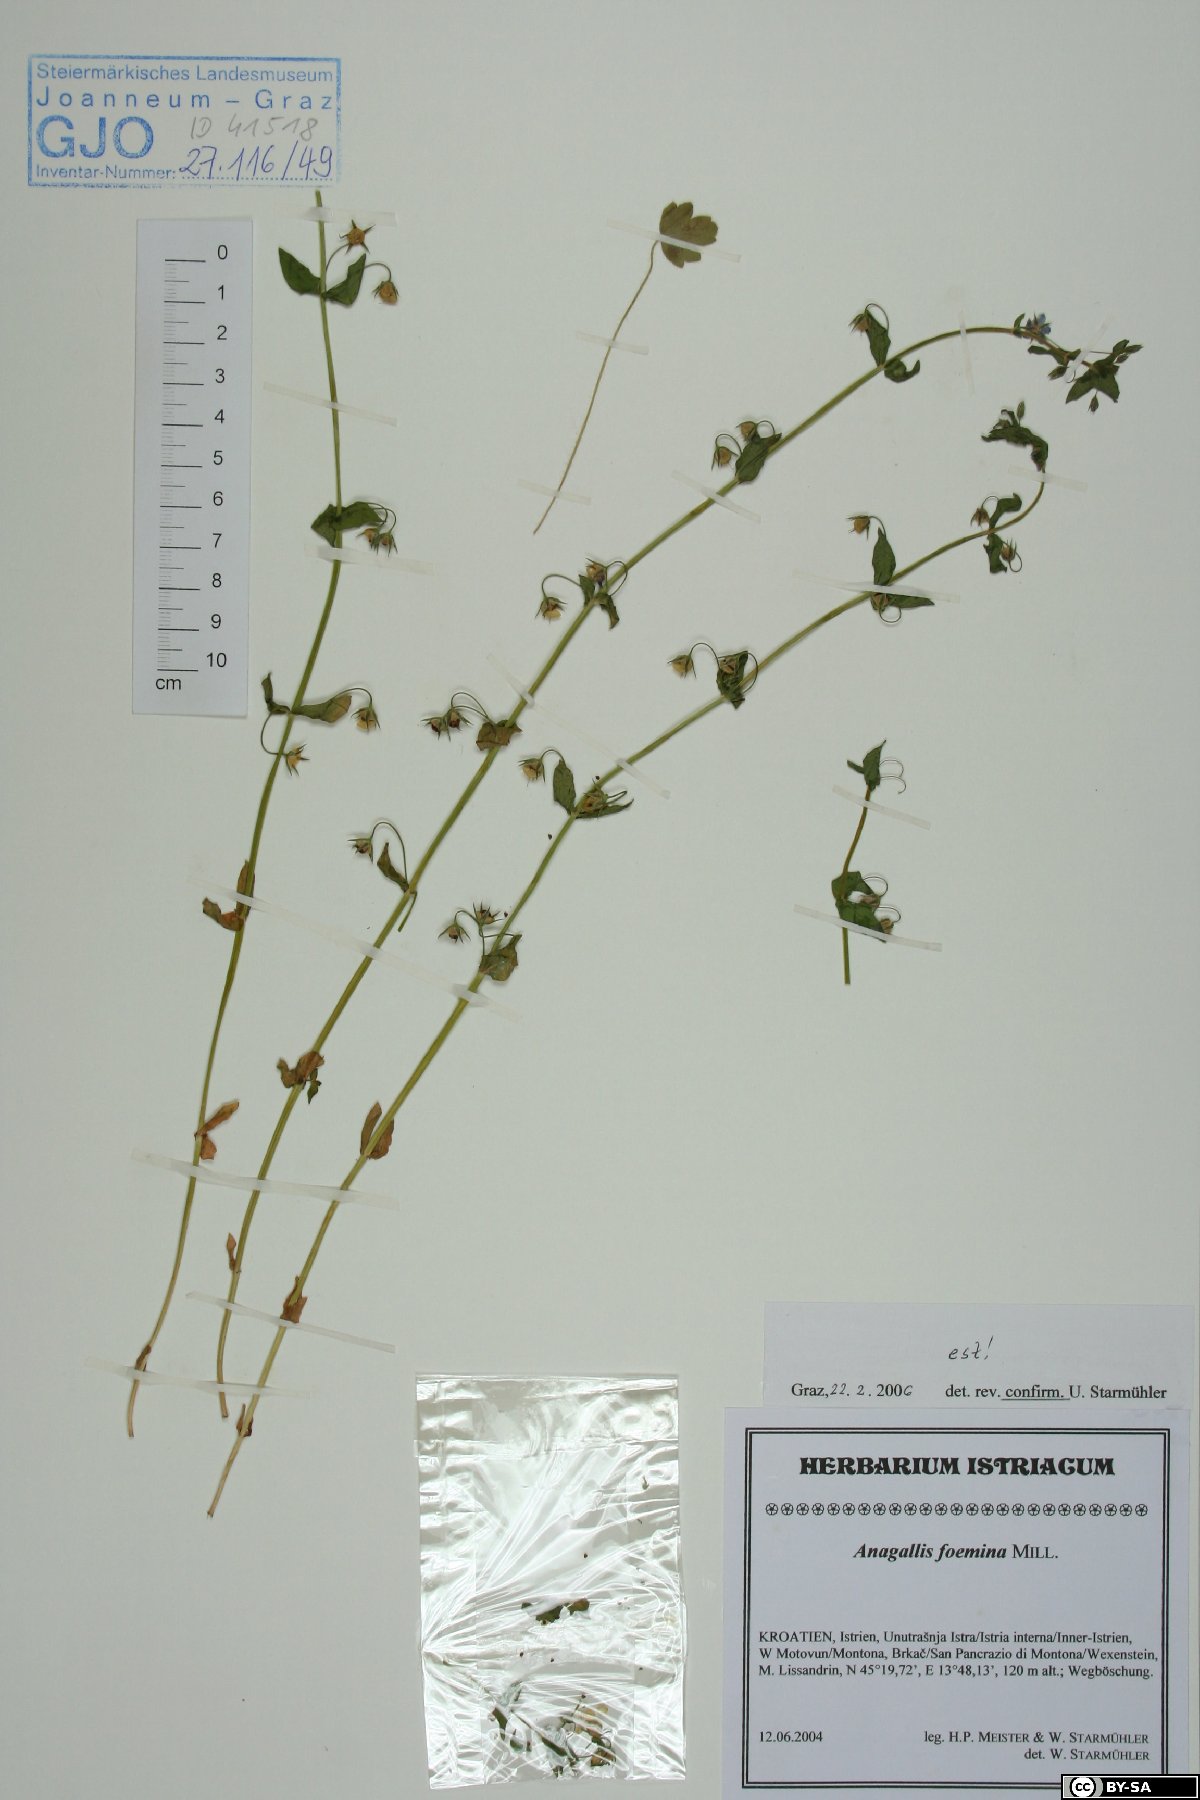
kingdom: Plantae
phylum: Tracheophyta
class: Magnoliopsida
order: Ericales
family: Primulaceae
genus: Lysimachia
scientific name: Lysimachia foemina
